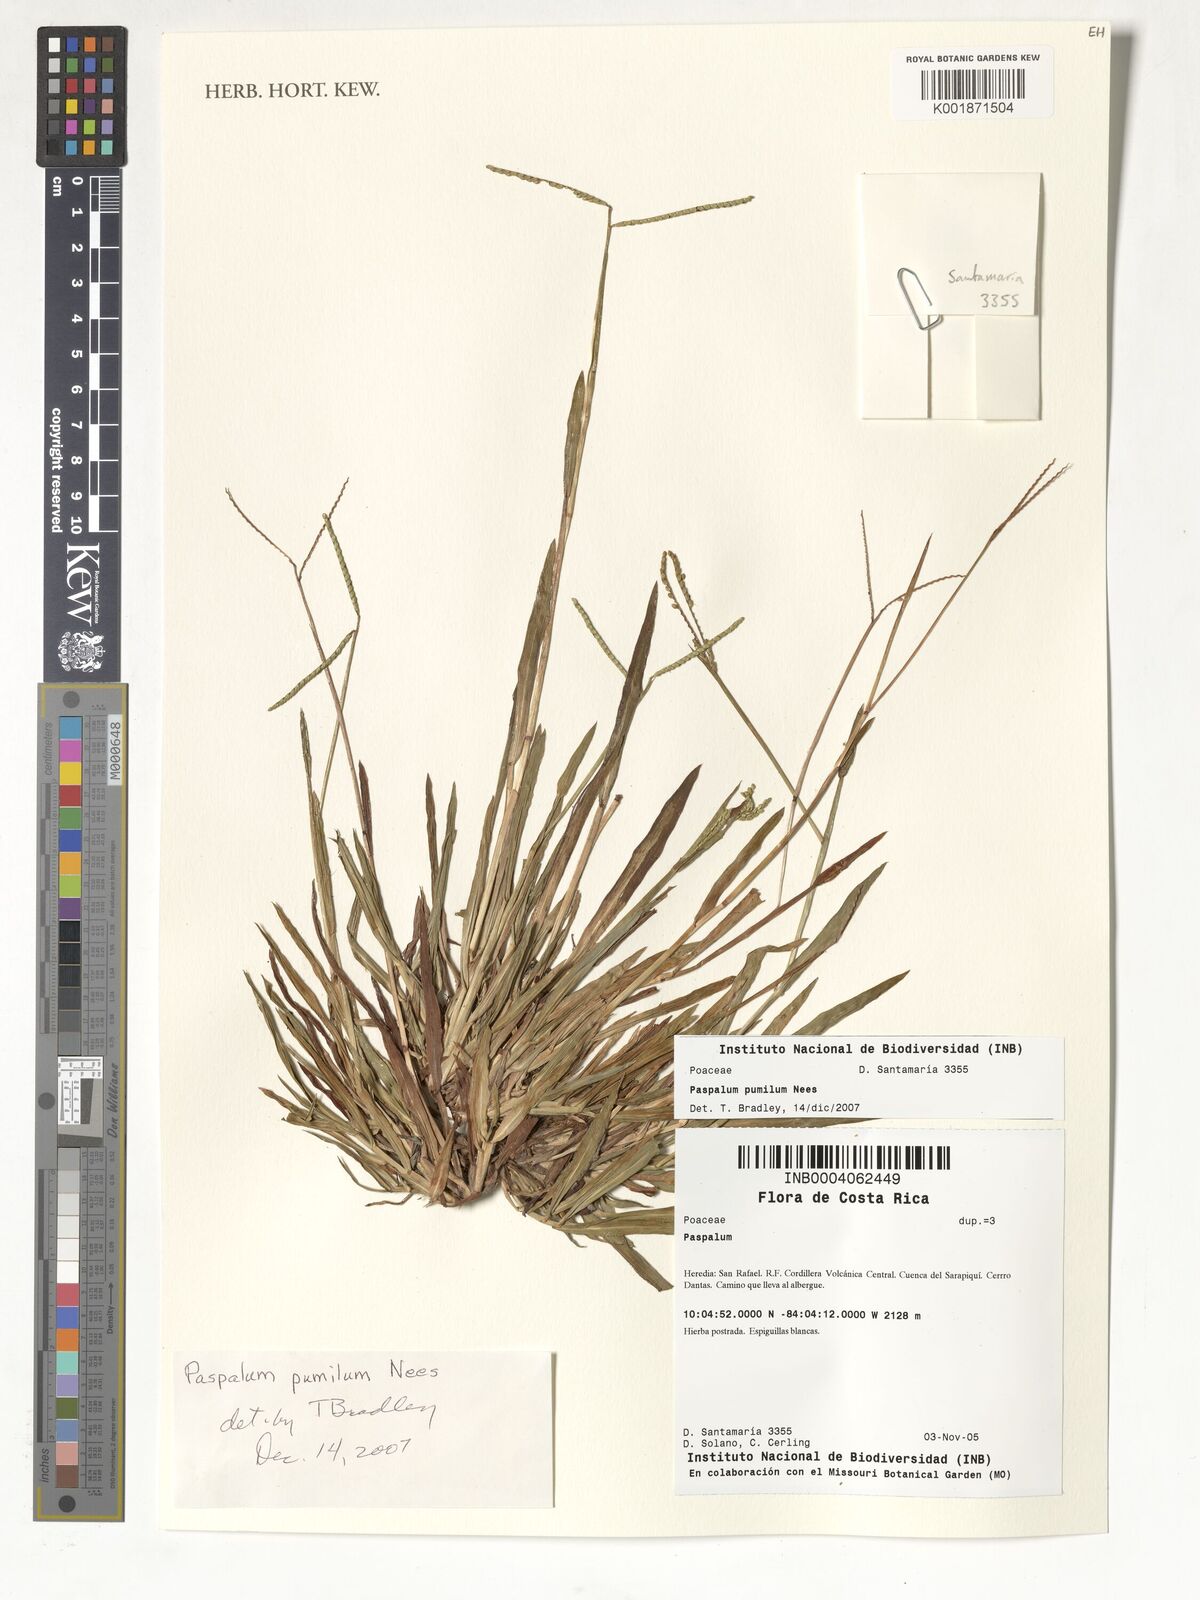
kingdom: Plantae
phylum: Tracheophyta
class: Liliopsida
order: Poales
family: Poaceae
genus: Paspalum
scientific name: Paspalum pumilum
